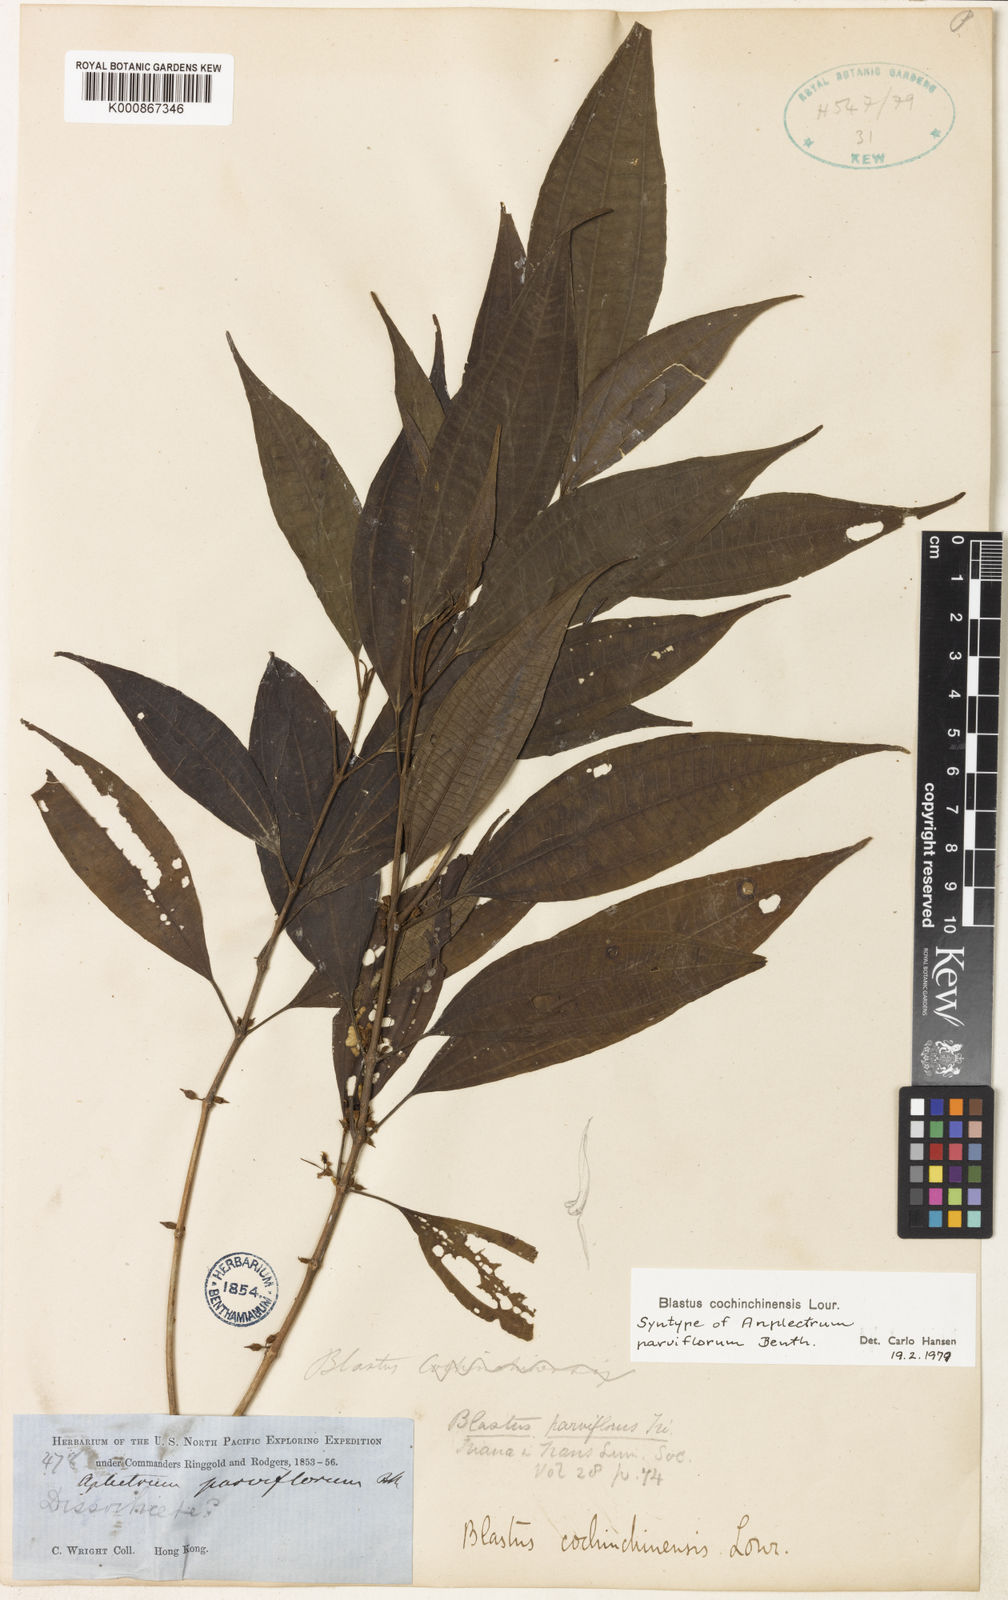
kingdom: Plantae
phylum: Tracheophyta
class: Magnoliopsida
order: Myrtales
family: Melastomataceae
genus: Blastus
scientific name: Blastus cochinchinensis
